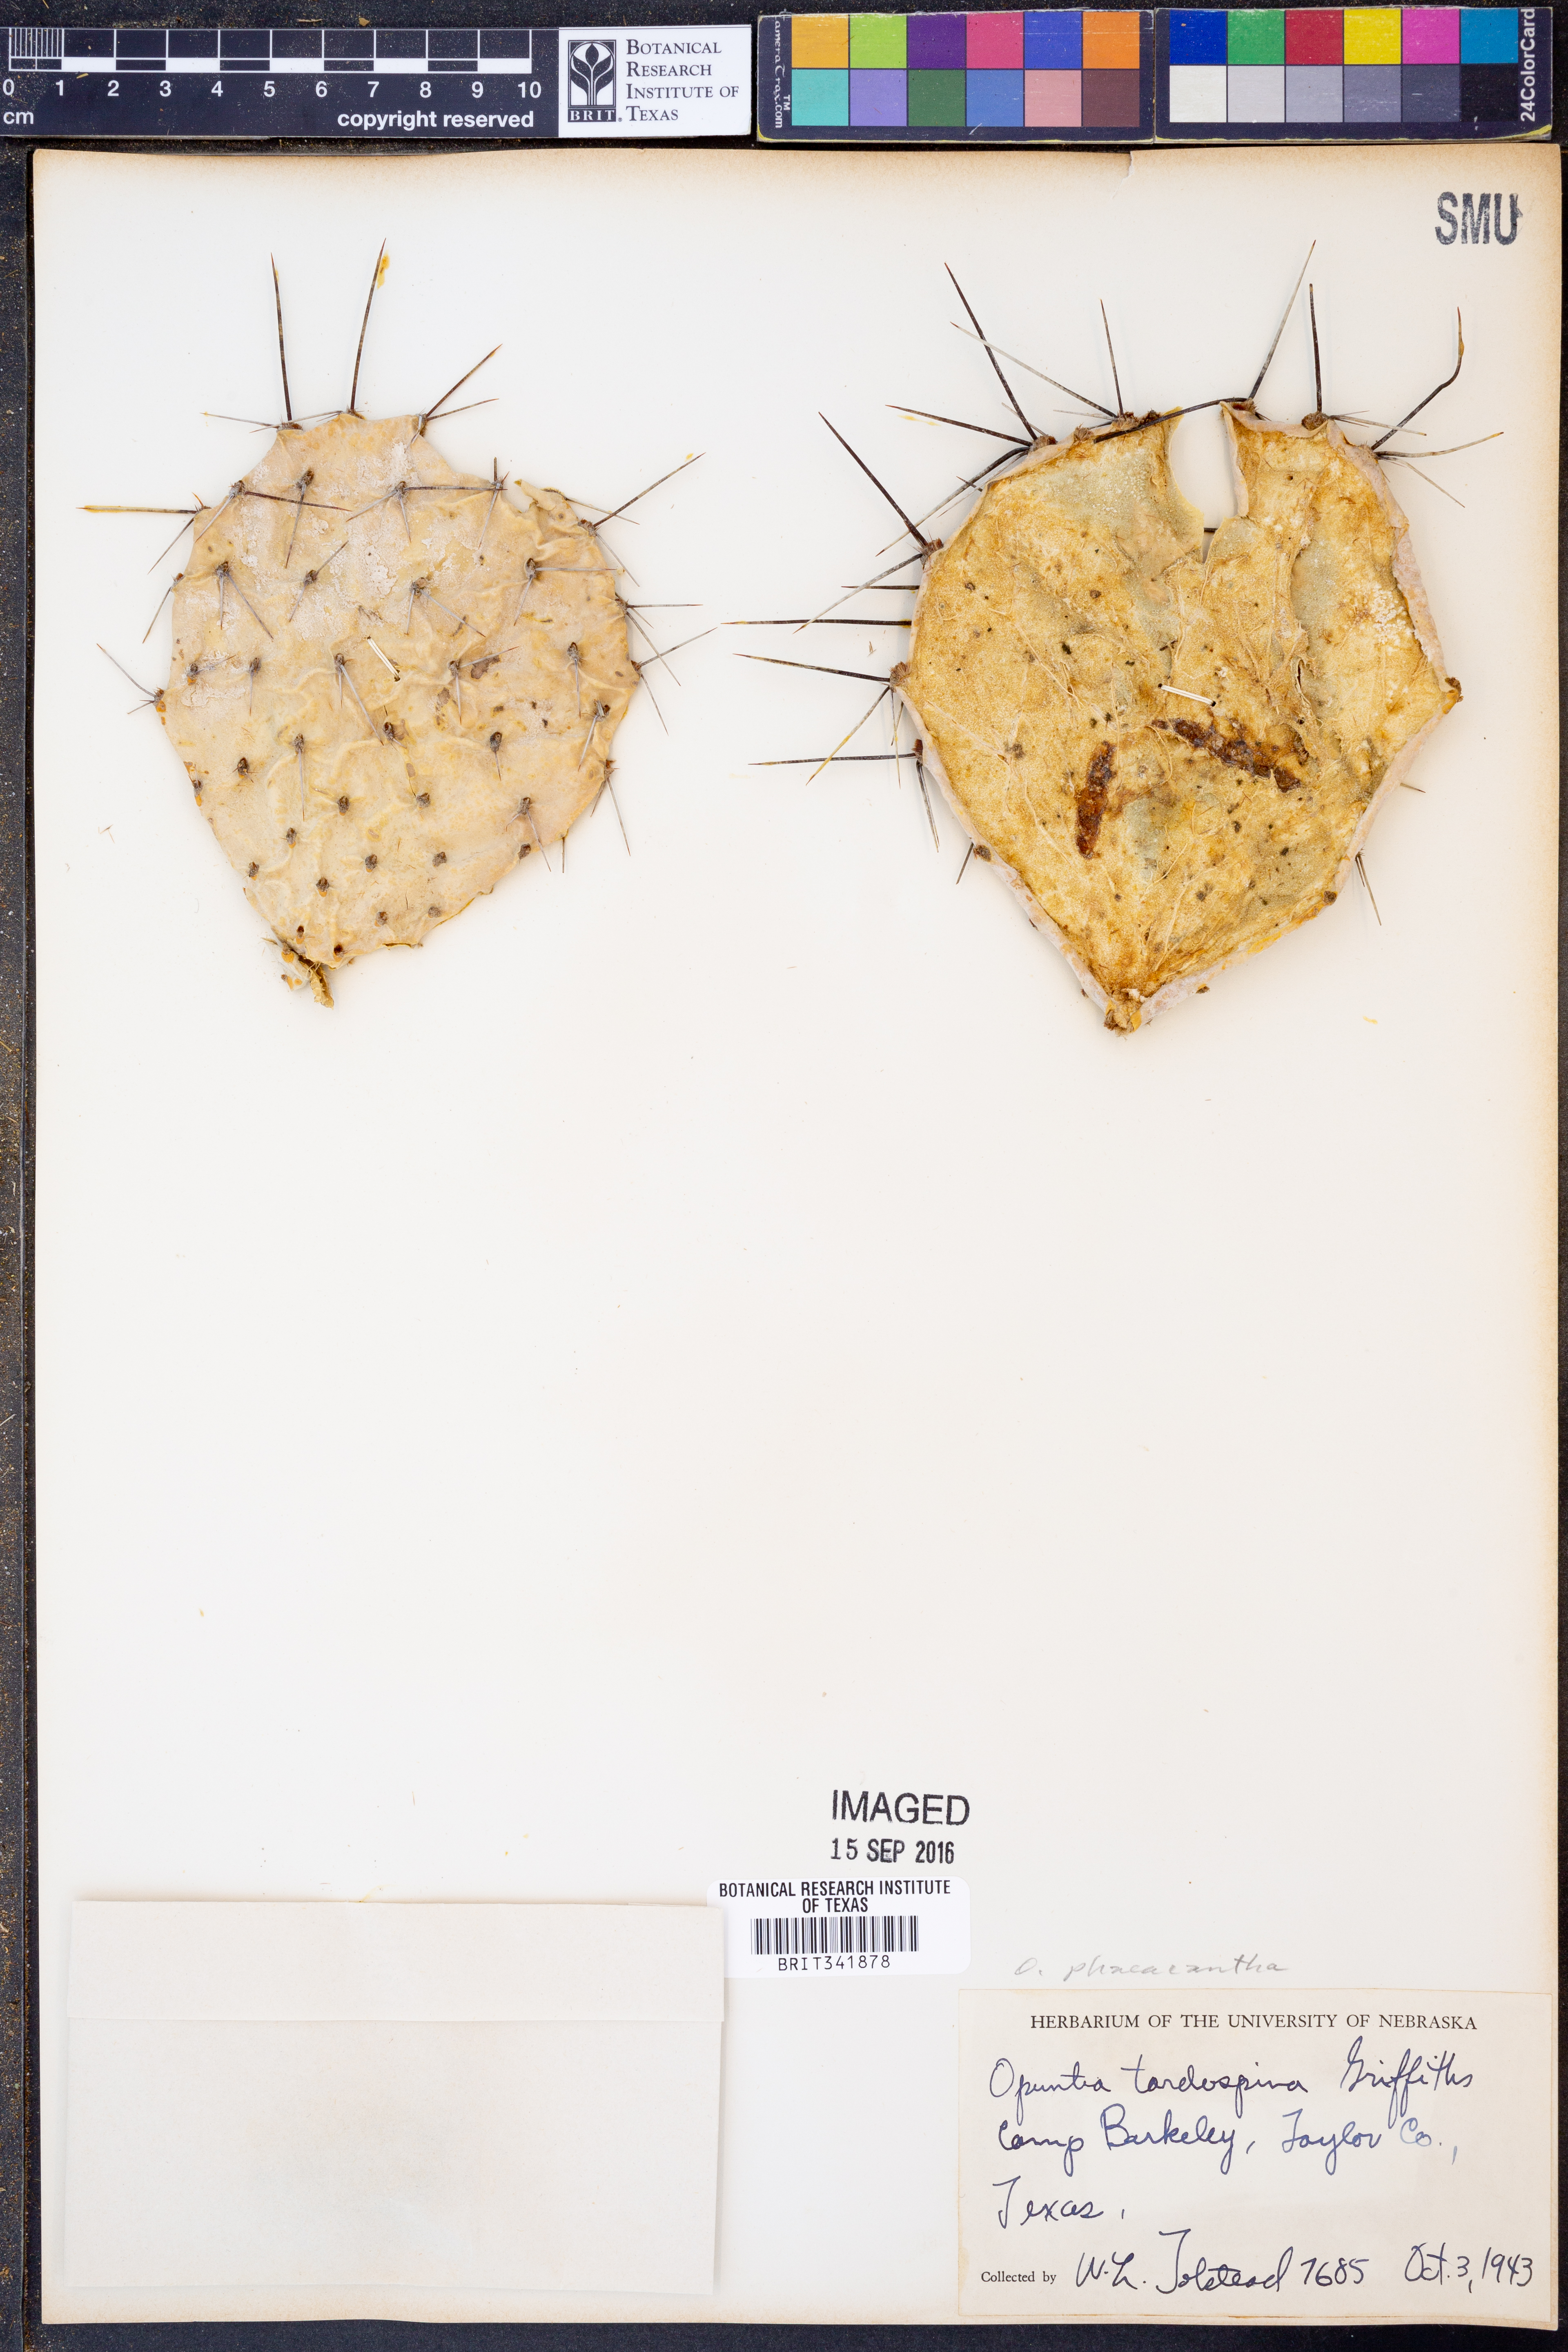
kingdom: Plantae
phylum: Tracheophyta
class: Magnoliopsida
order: Caryophyllales
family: Cactaceae
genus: Opuntia
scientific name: Opuntia phaeacantha
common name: New mexico prickly-pear
